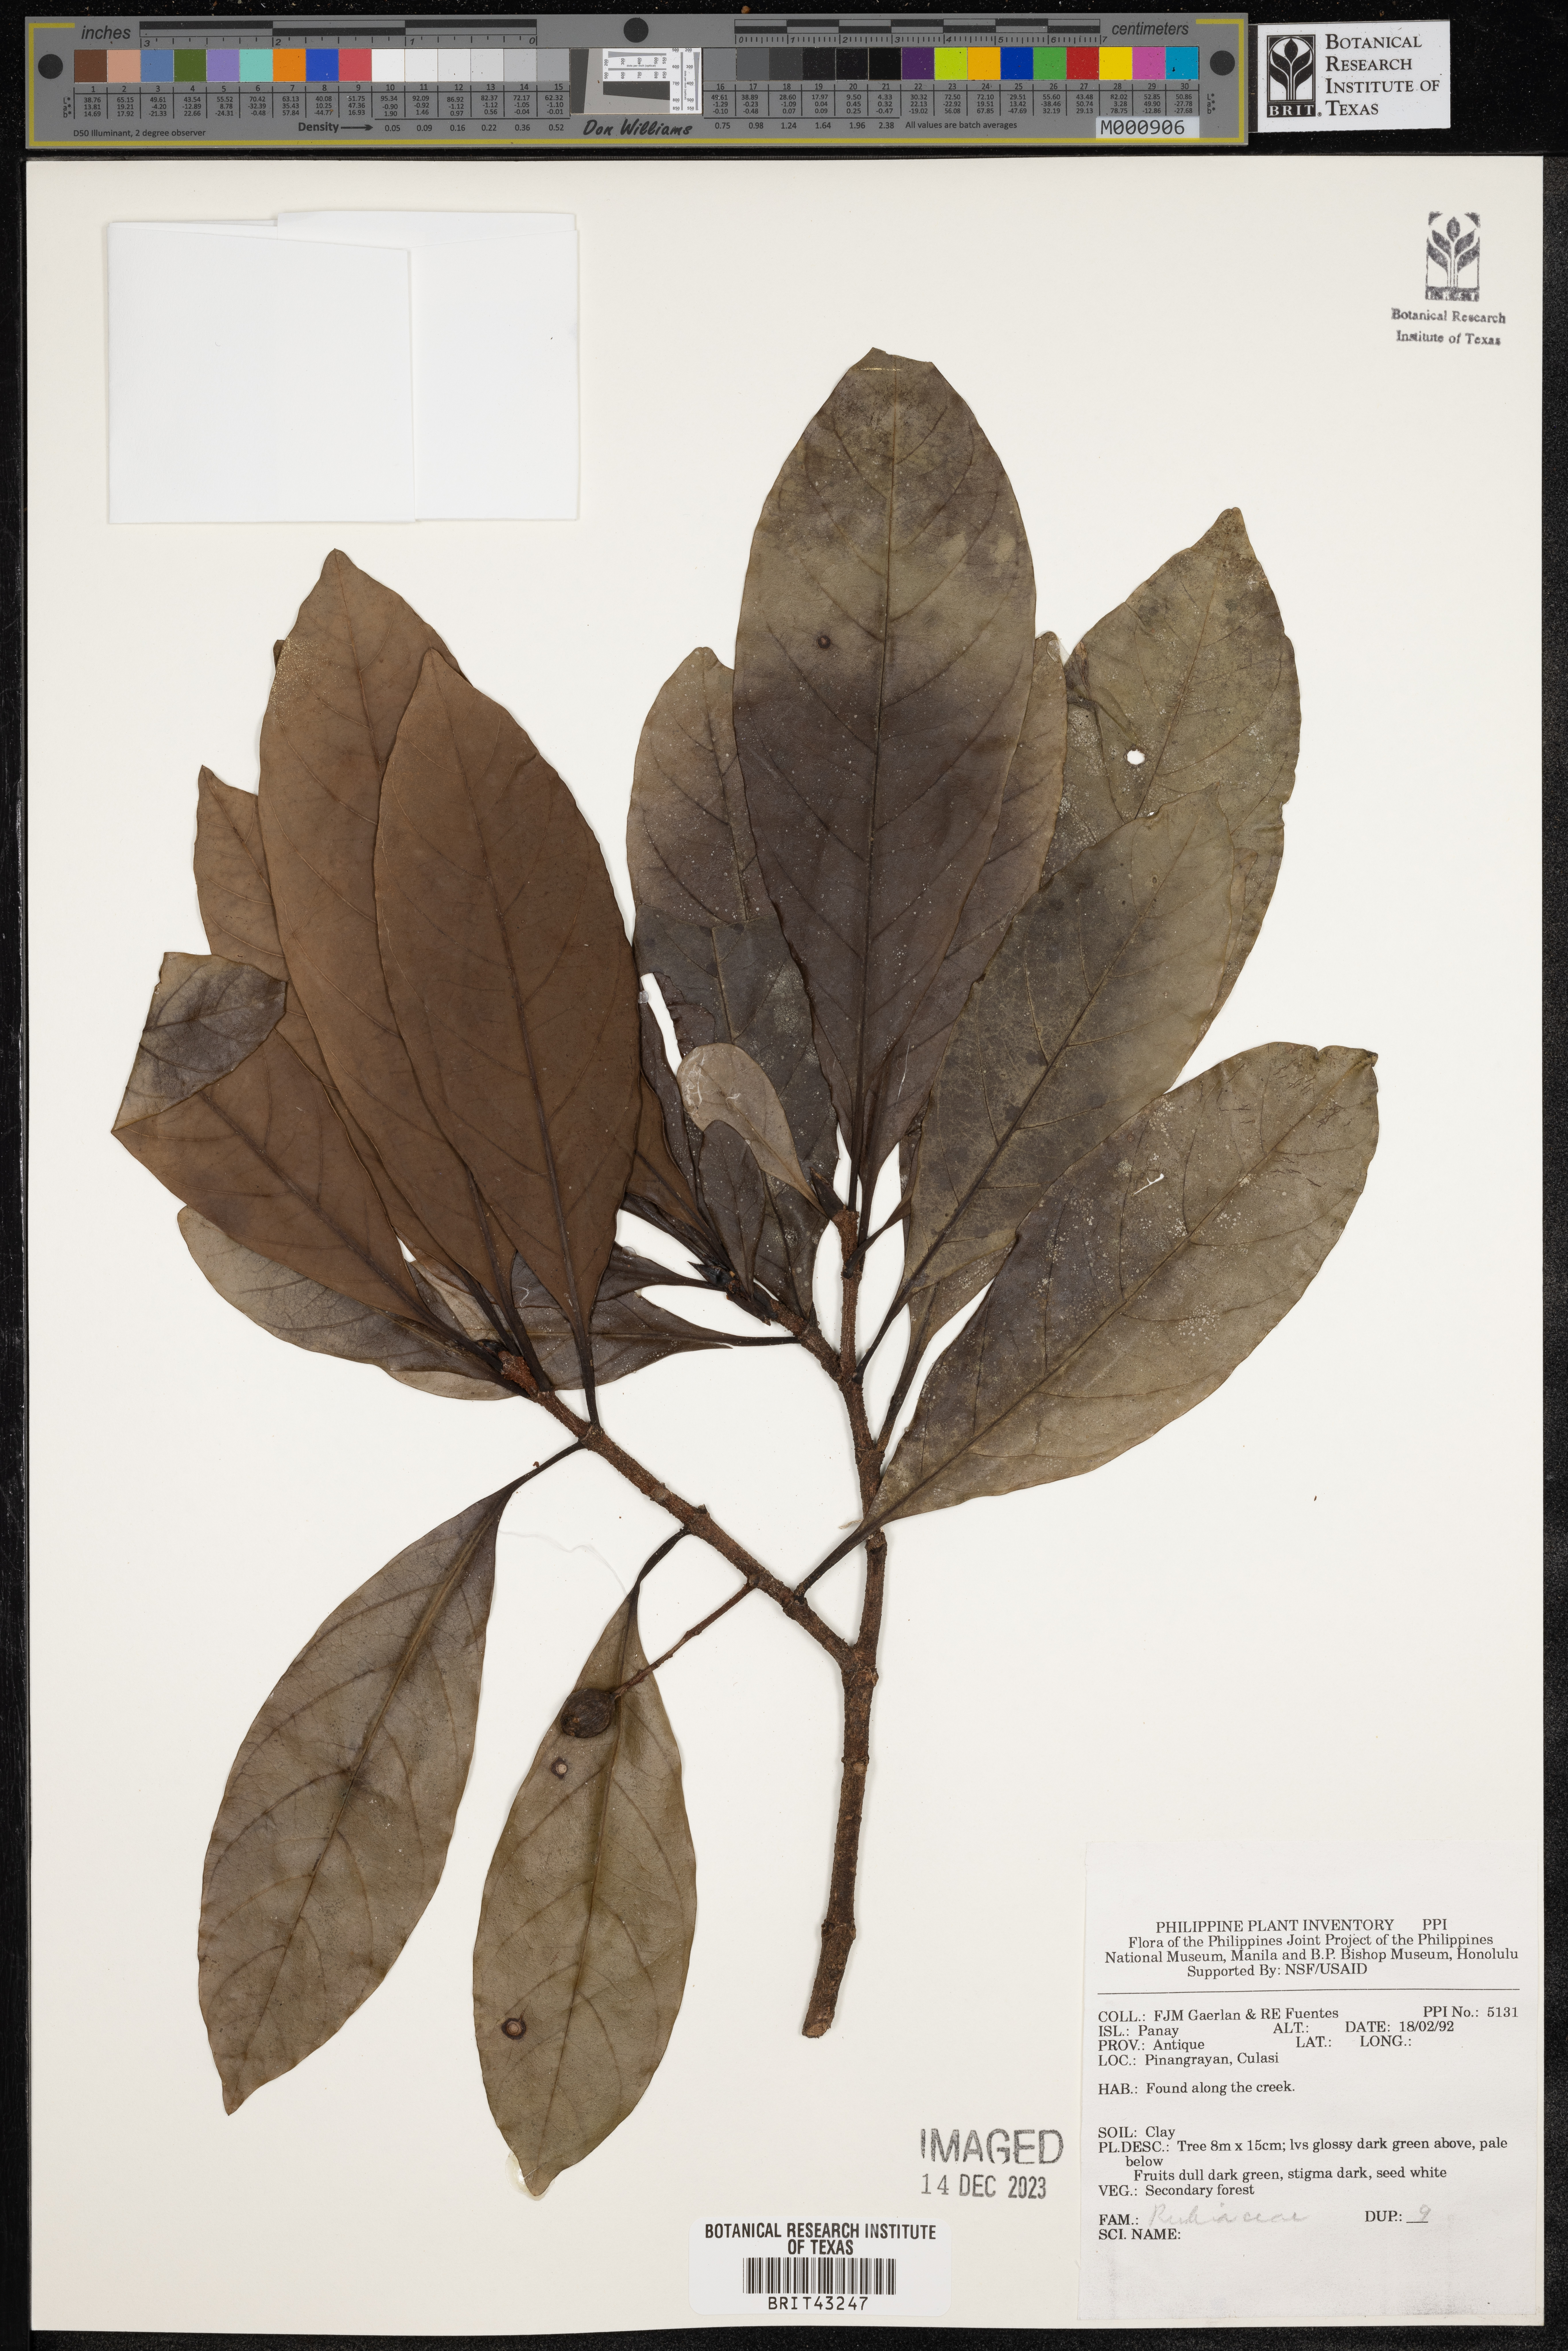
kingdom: Plantae
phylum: Tracheophyta
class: Magnoliopsida
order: Gentianales
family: Rubiaceae
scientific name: Rubiaceae
